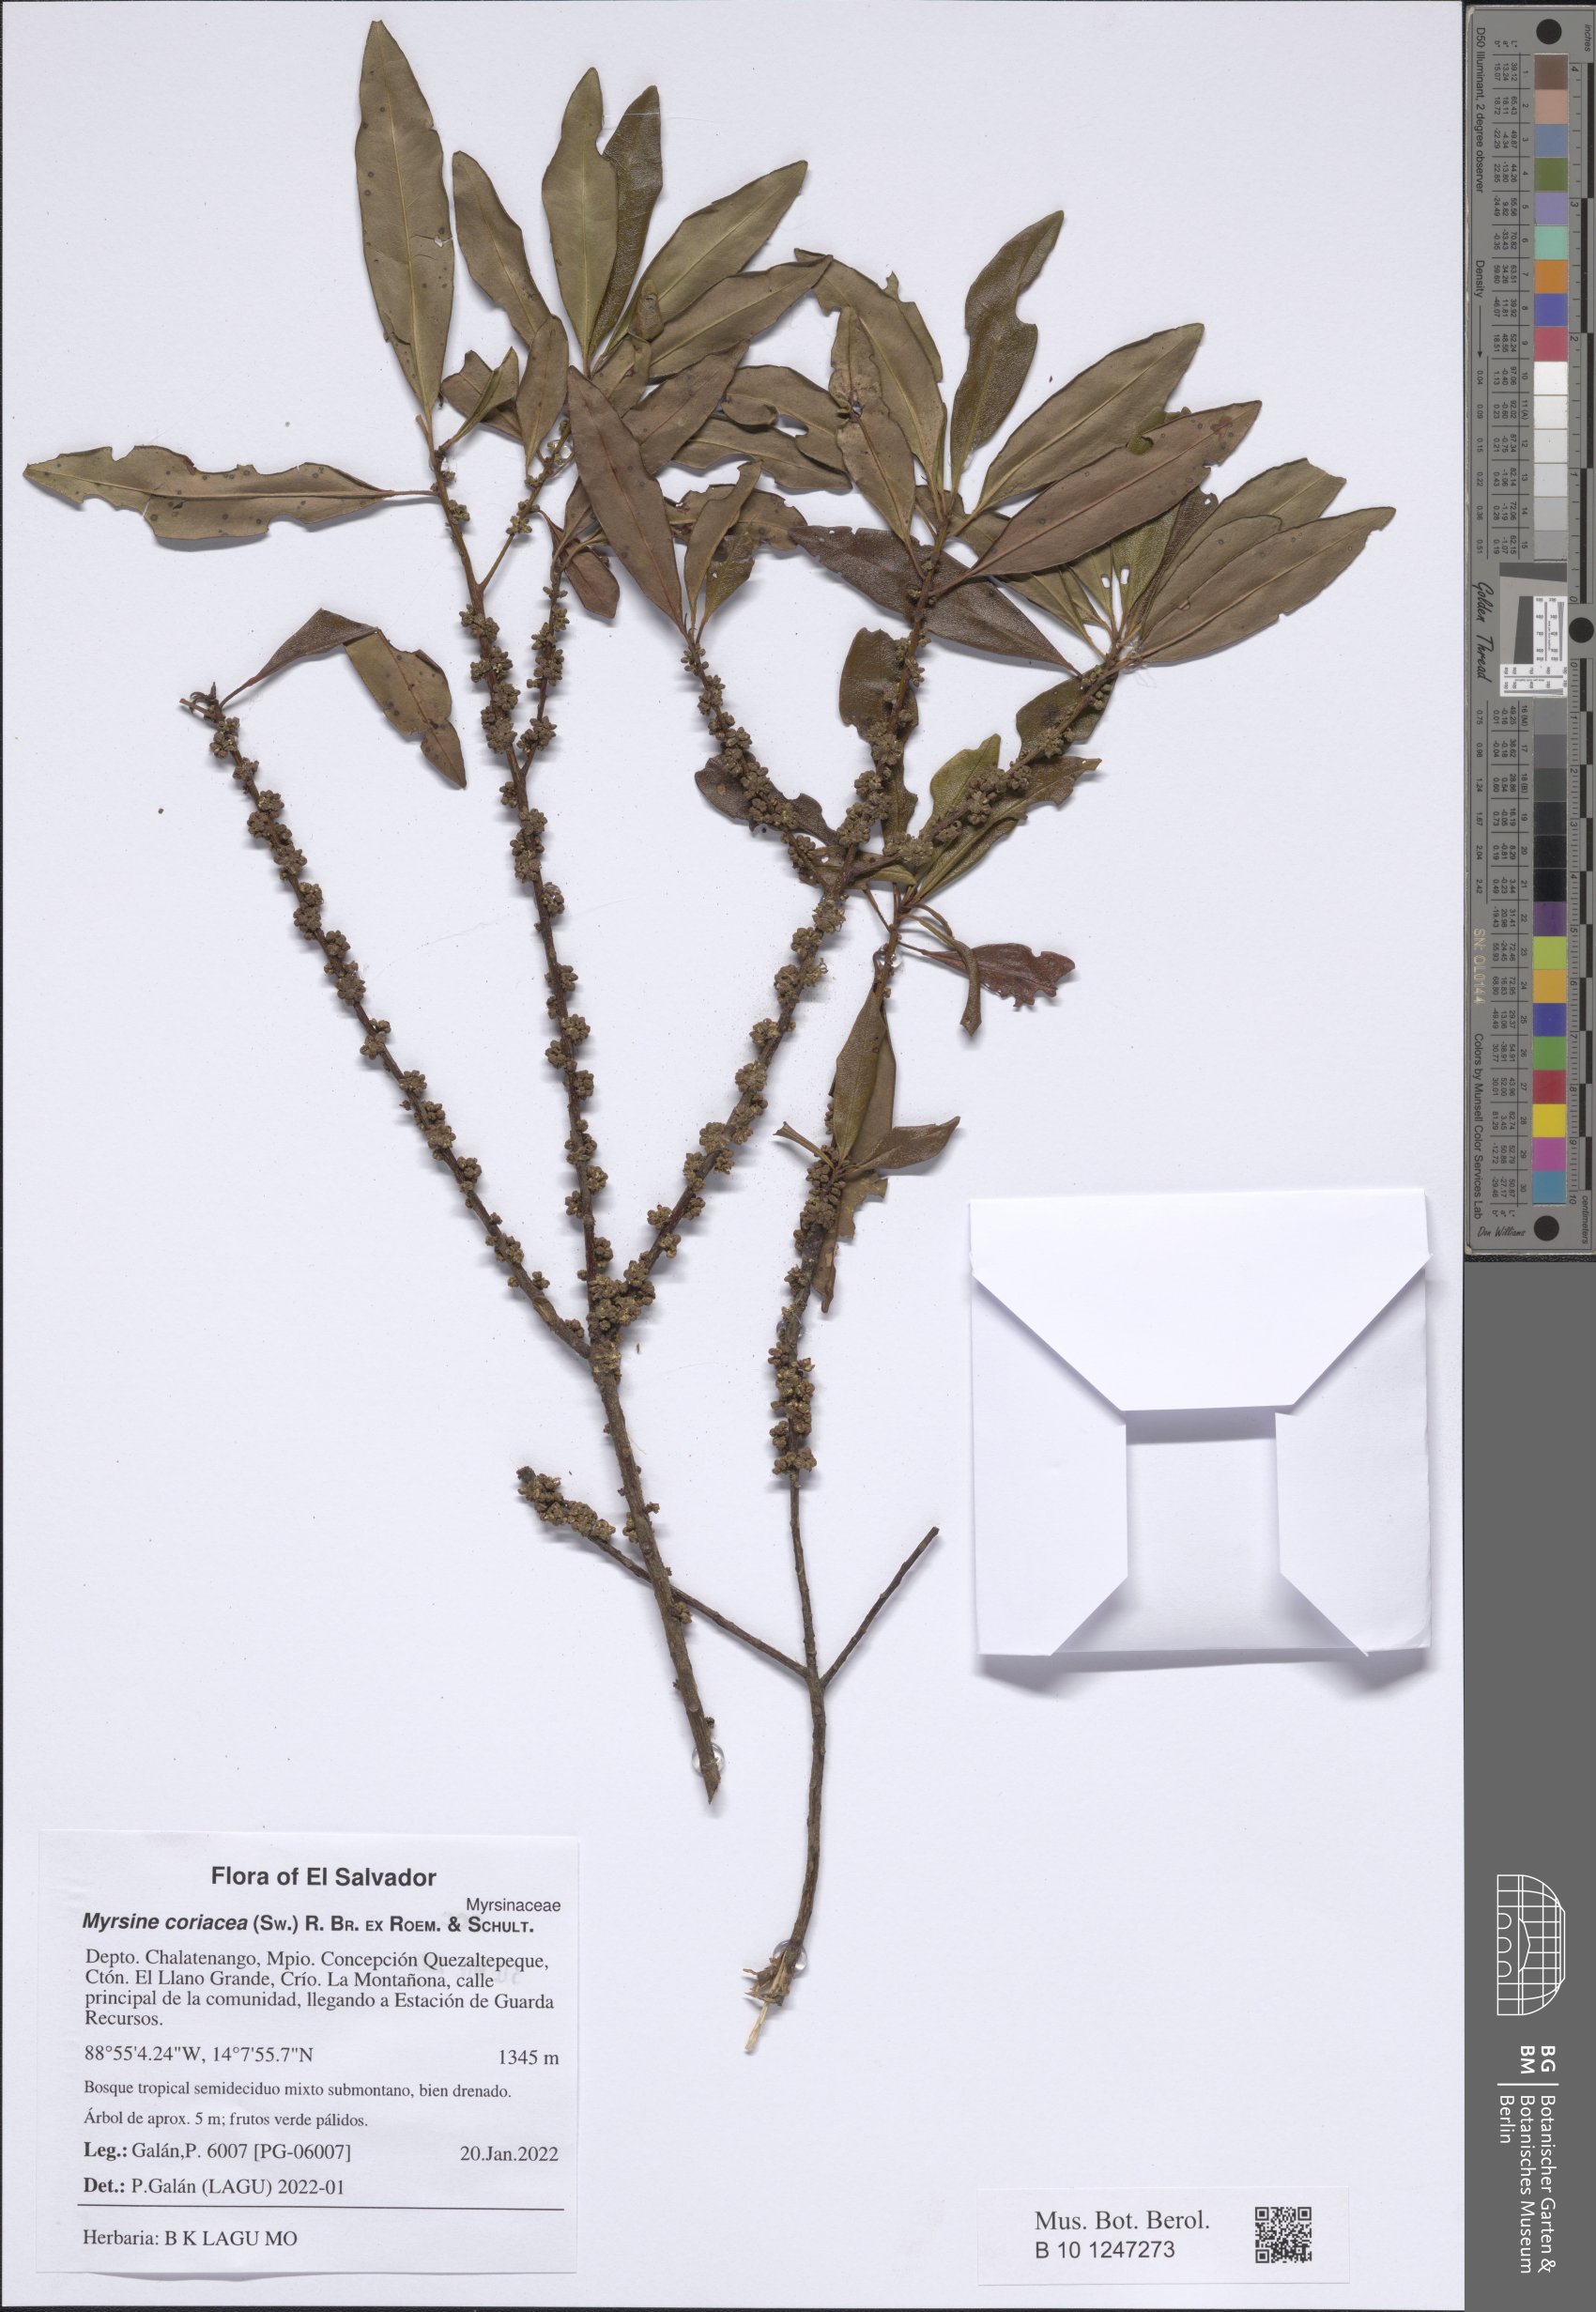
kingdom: Plantae
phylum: Tracheophyta
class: Magnoliopsida
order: Ericales
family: Primulaceae
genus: Myrsine
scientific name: Myrsine coriacea
